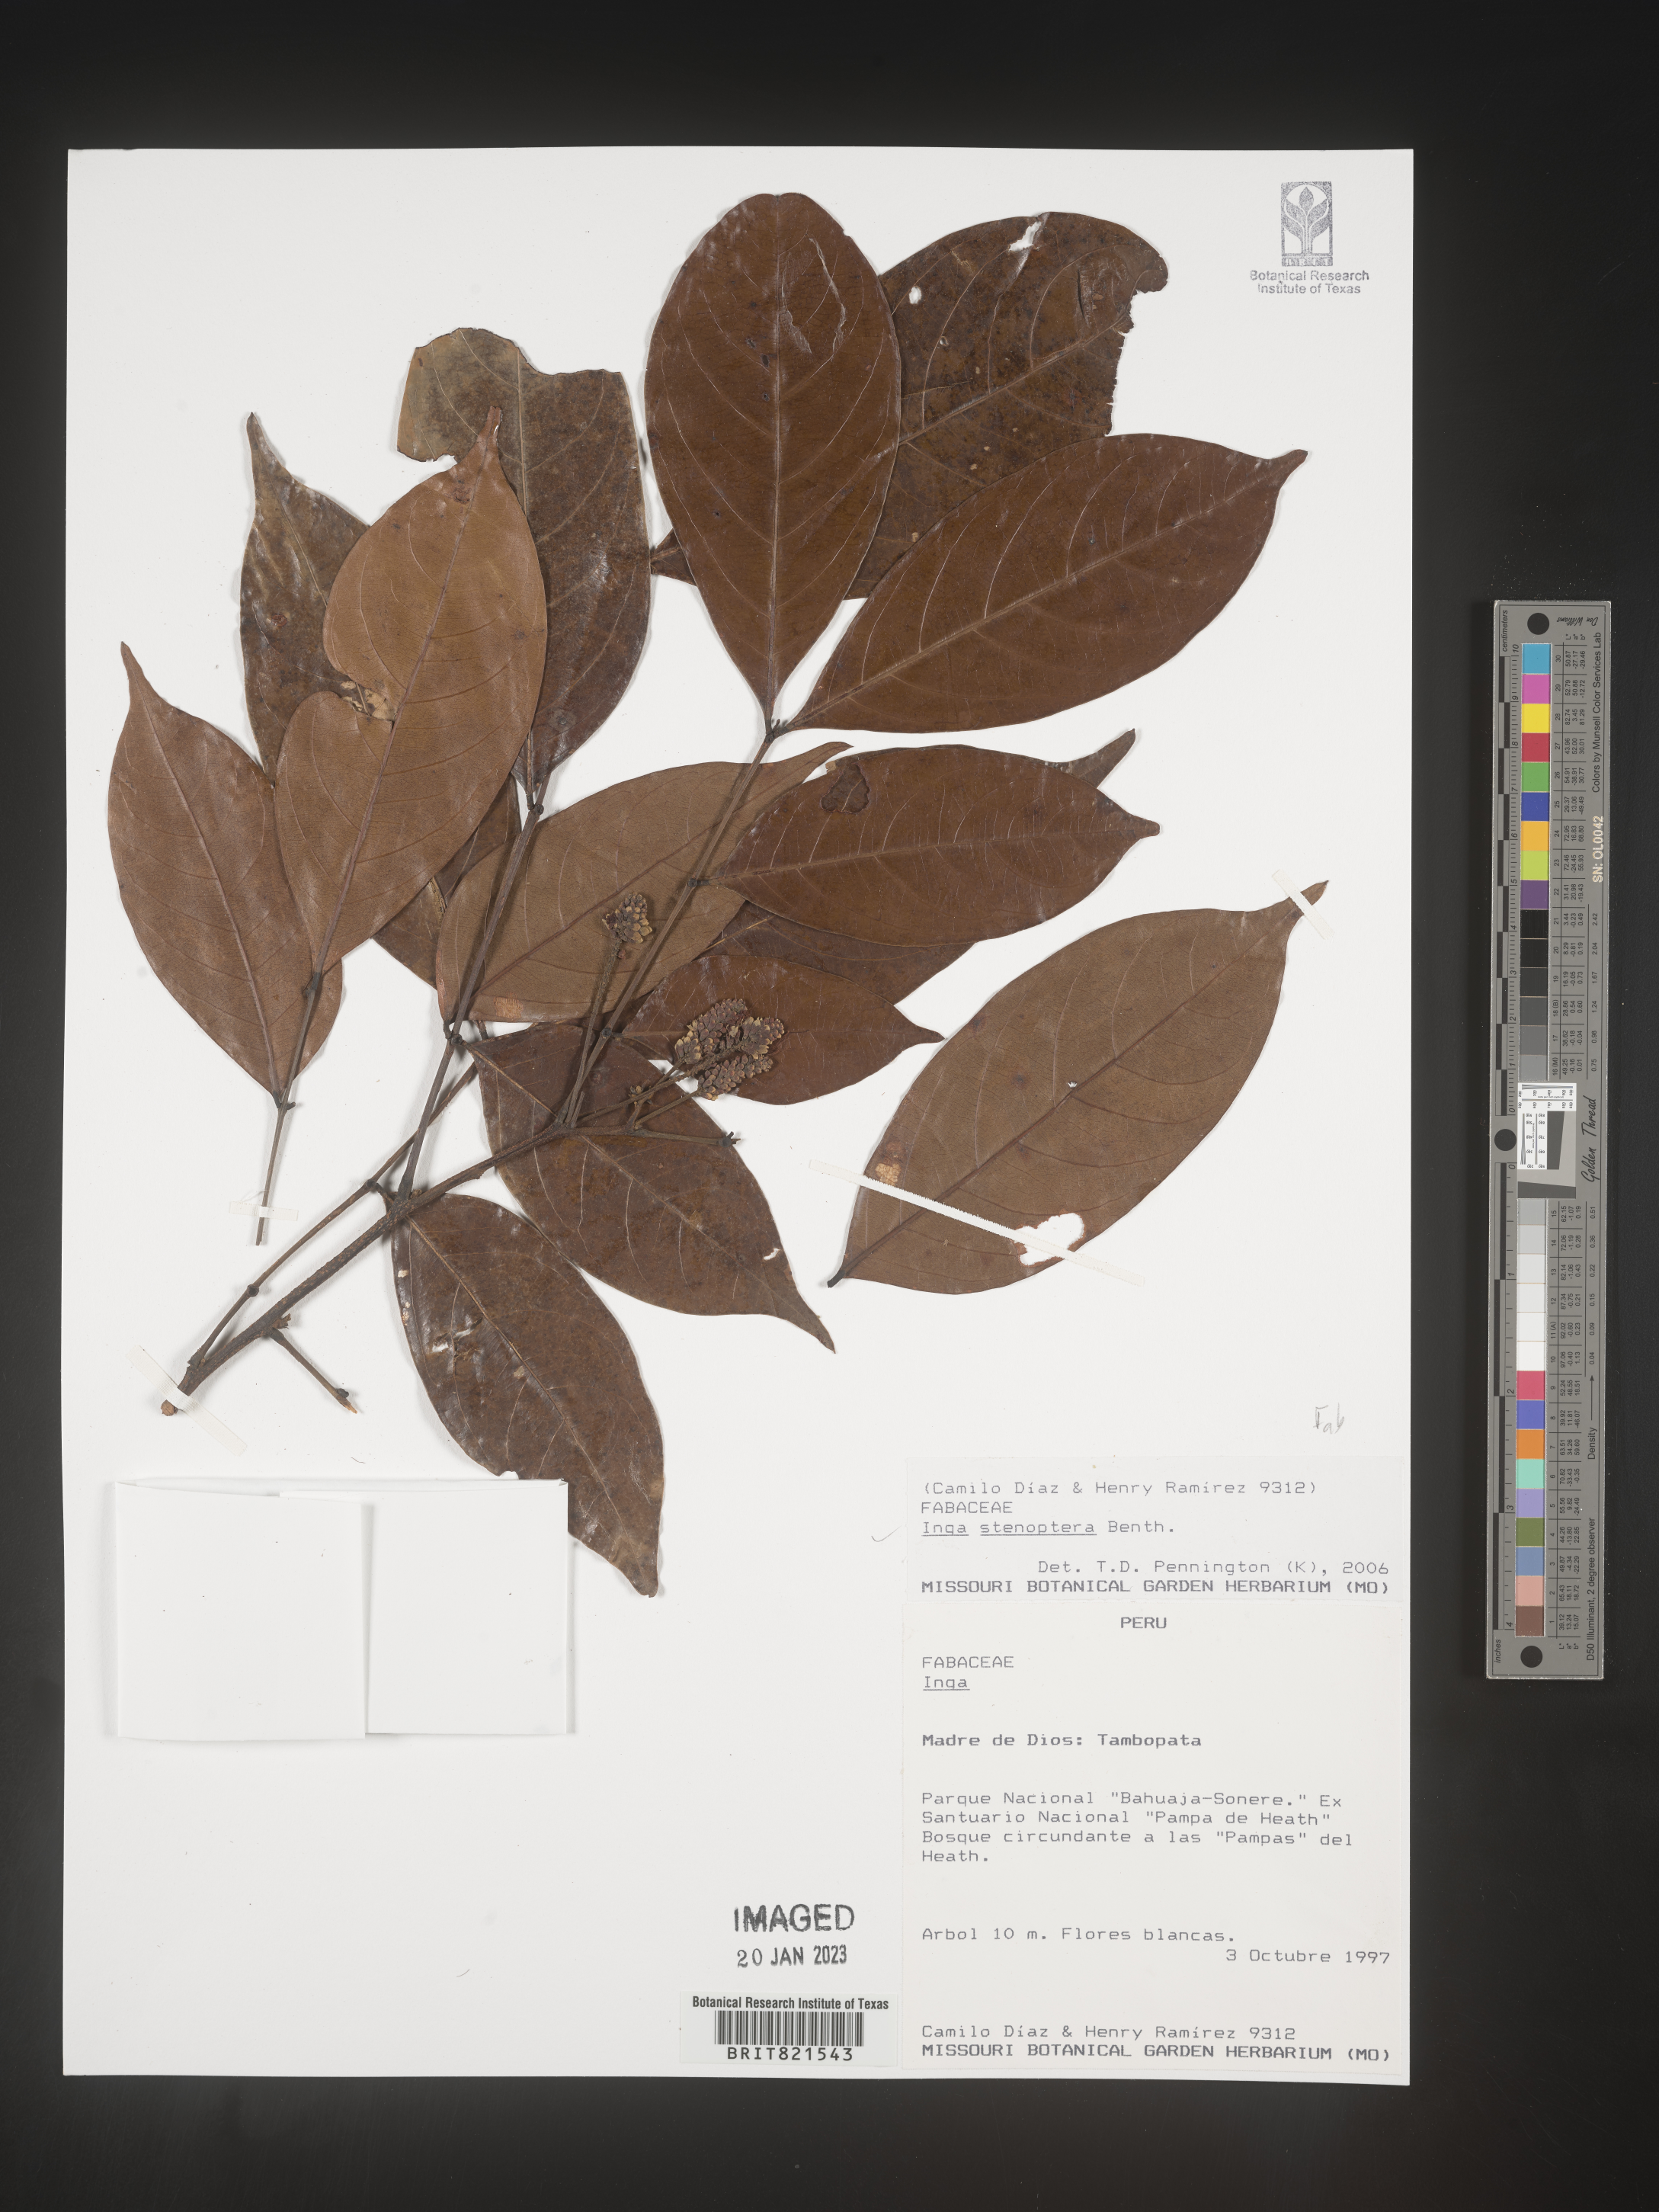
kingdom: Plantae
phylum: Tracheophyta
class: Magnoliopsida
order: Fabales
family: Fabaceae
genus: Inga
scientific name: Inga
